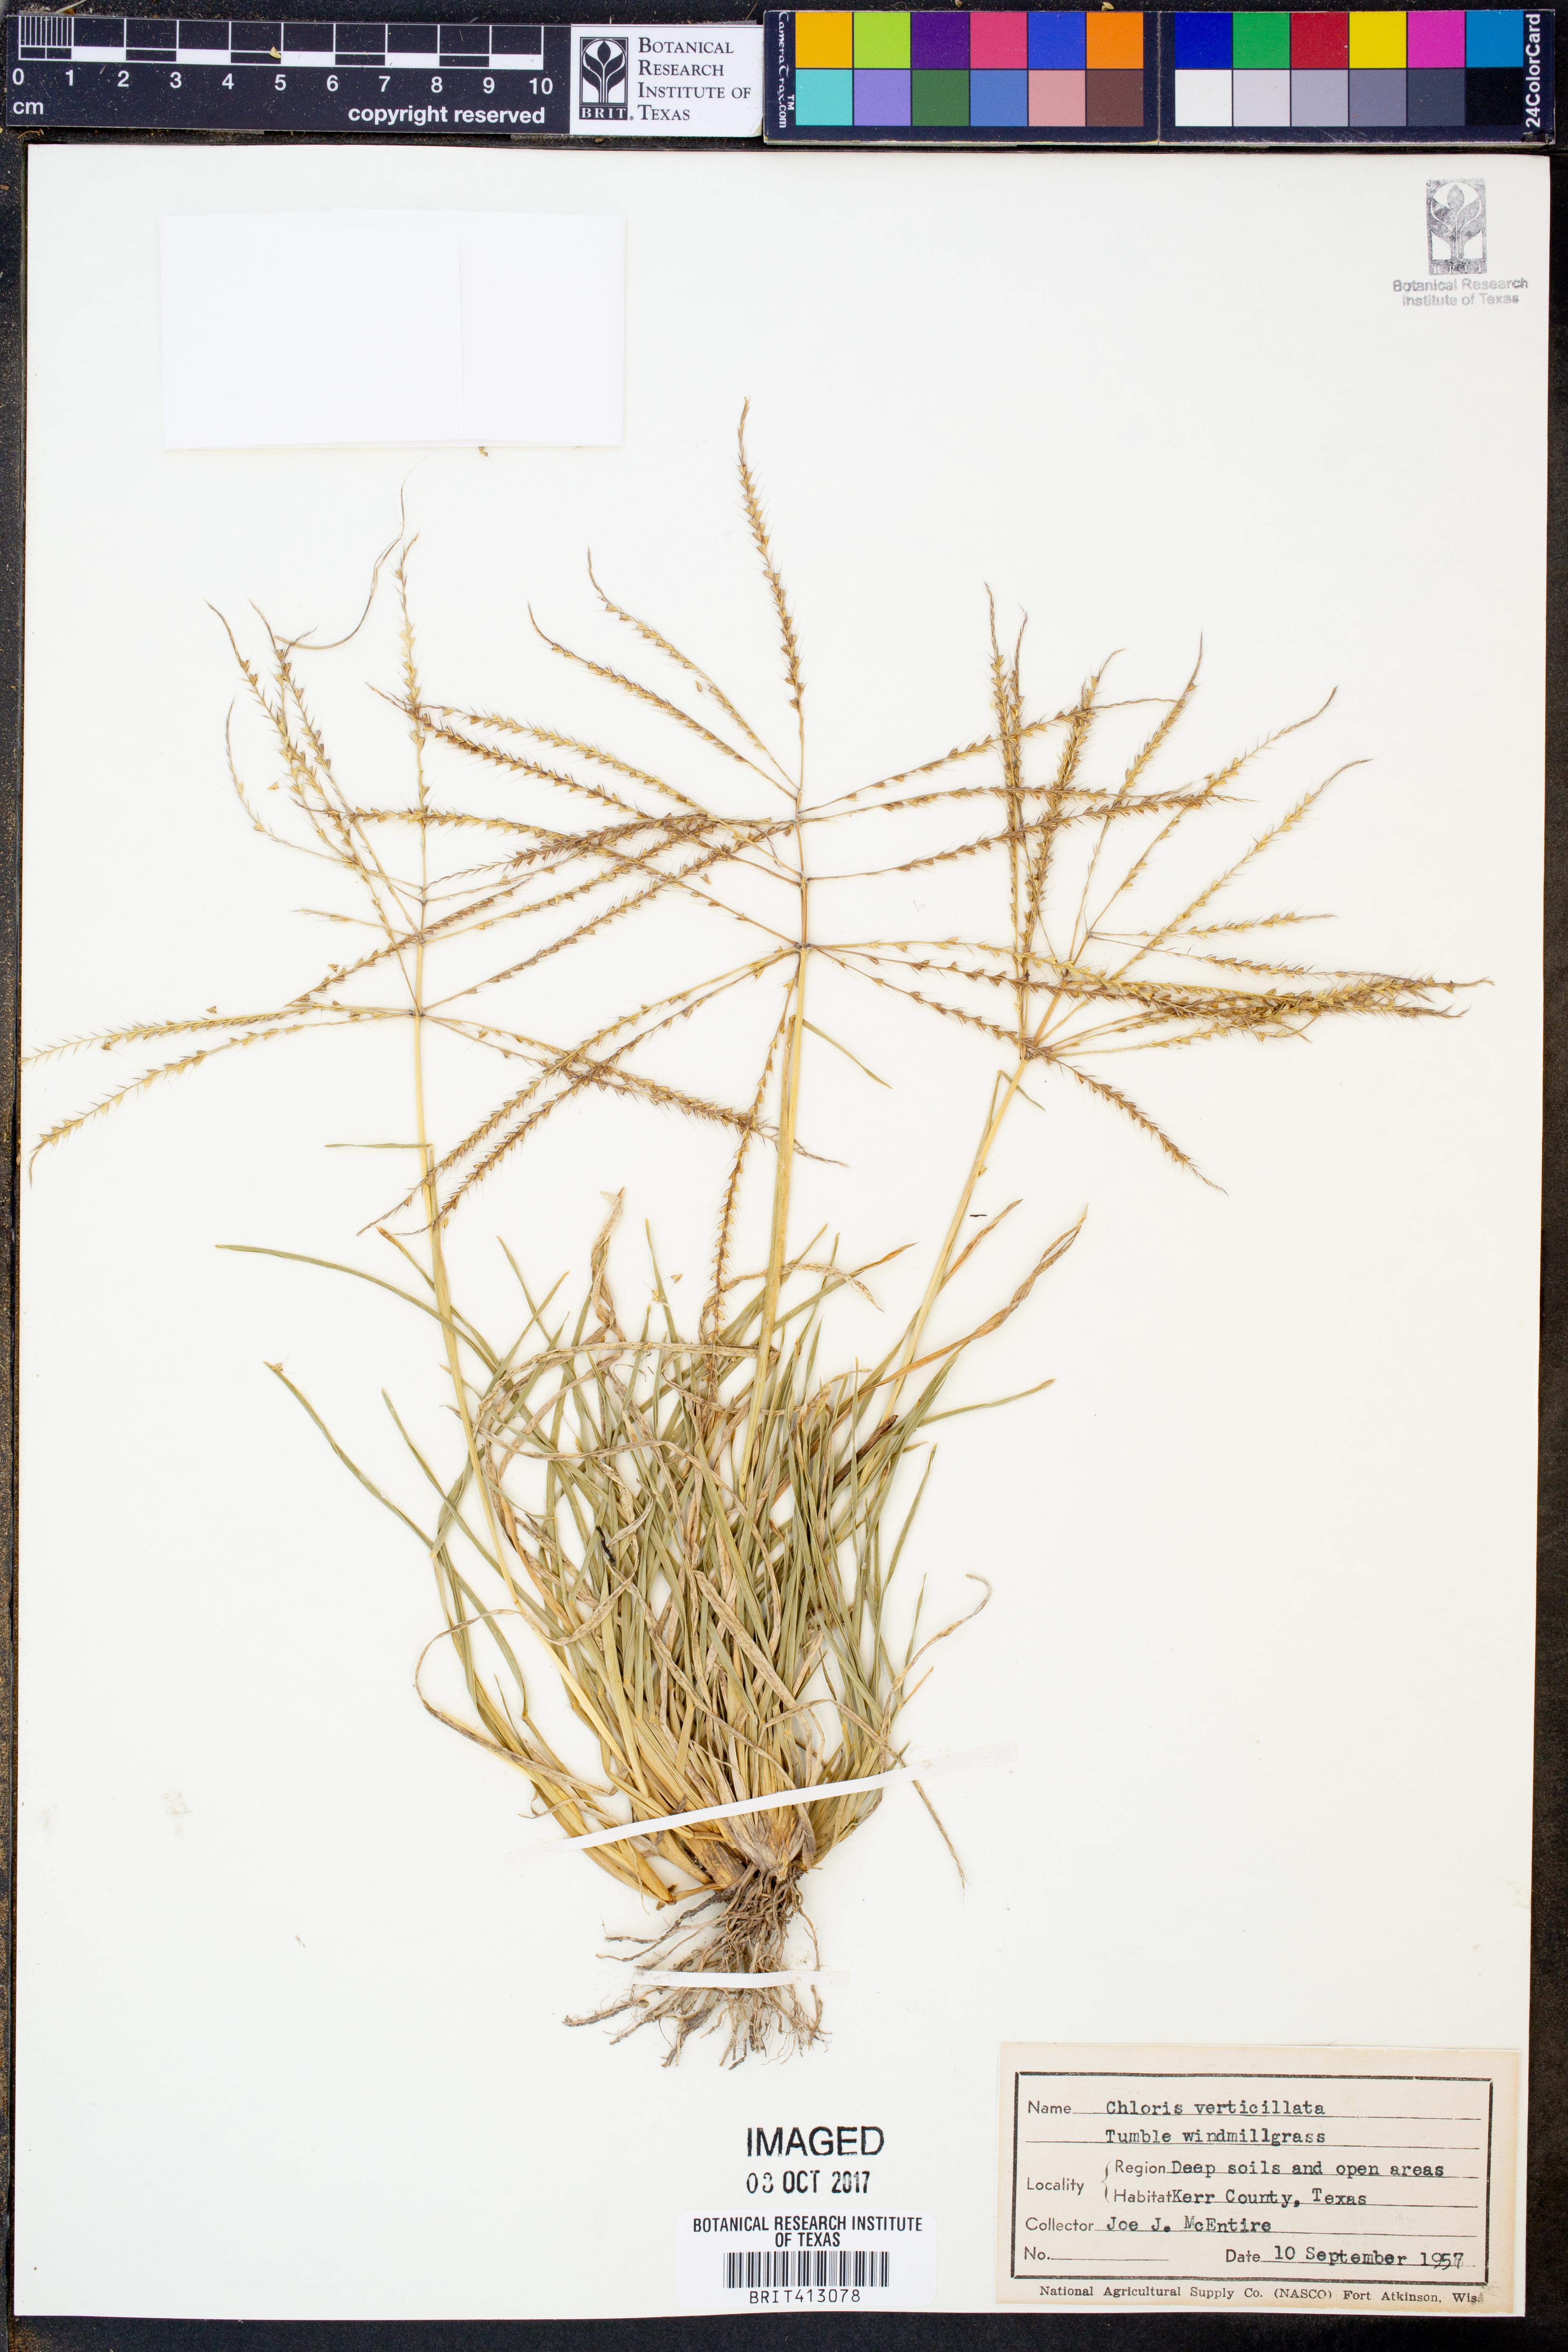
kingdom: Plantae
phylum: Tracheophyta
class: Liliopsida
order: Poales
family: Poaceae
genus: Chloris
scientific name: Chloris verticillata
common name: Tumble windmill grass
